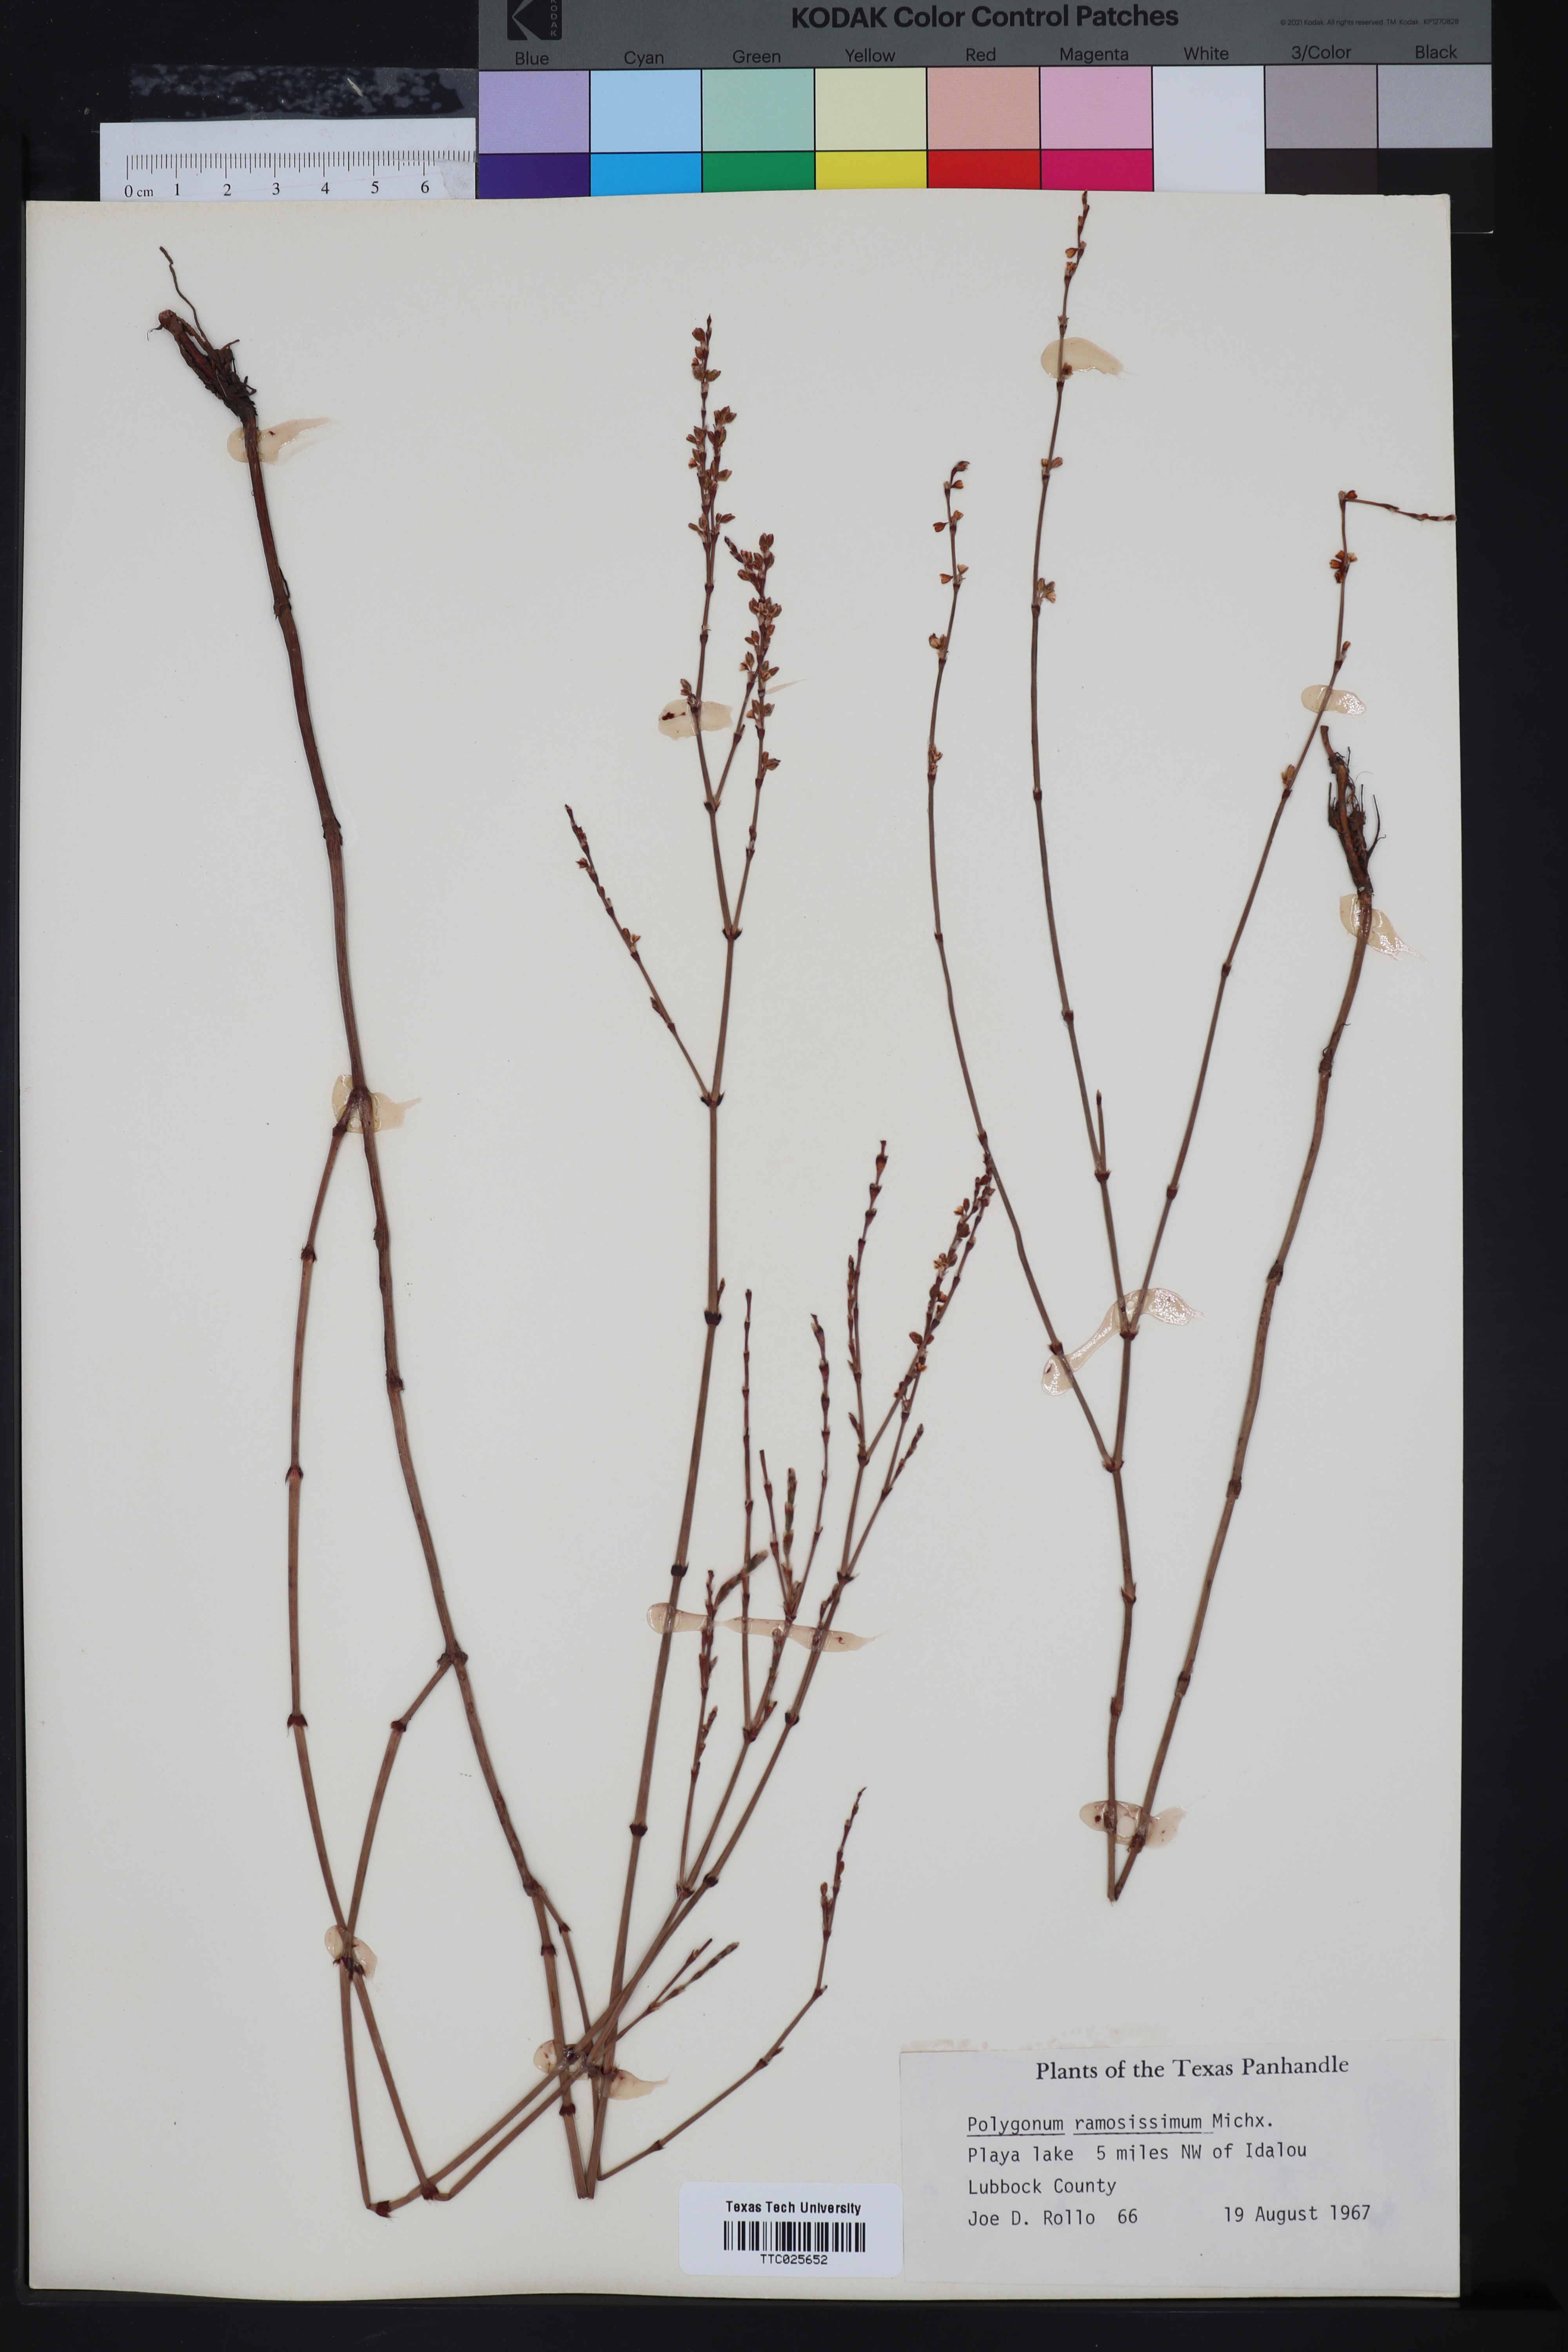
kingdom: Plantae
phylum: Tracheophyta
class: Magnoliopsida
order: Caryophyllales
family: Polygonaceae
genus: Polygonum
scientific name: Polygonum ramosissimum
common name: Bushy knotweed
